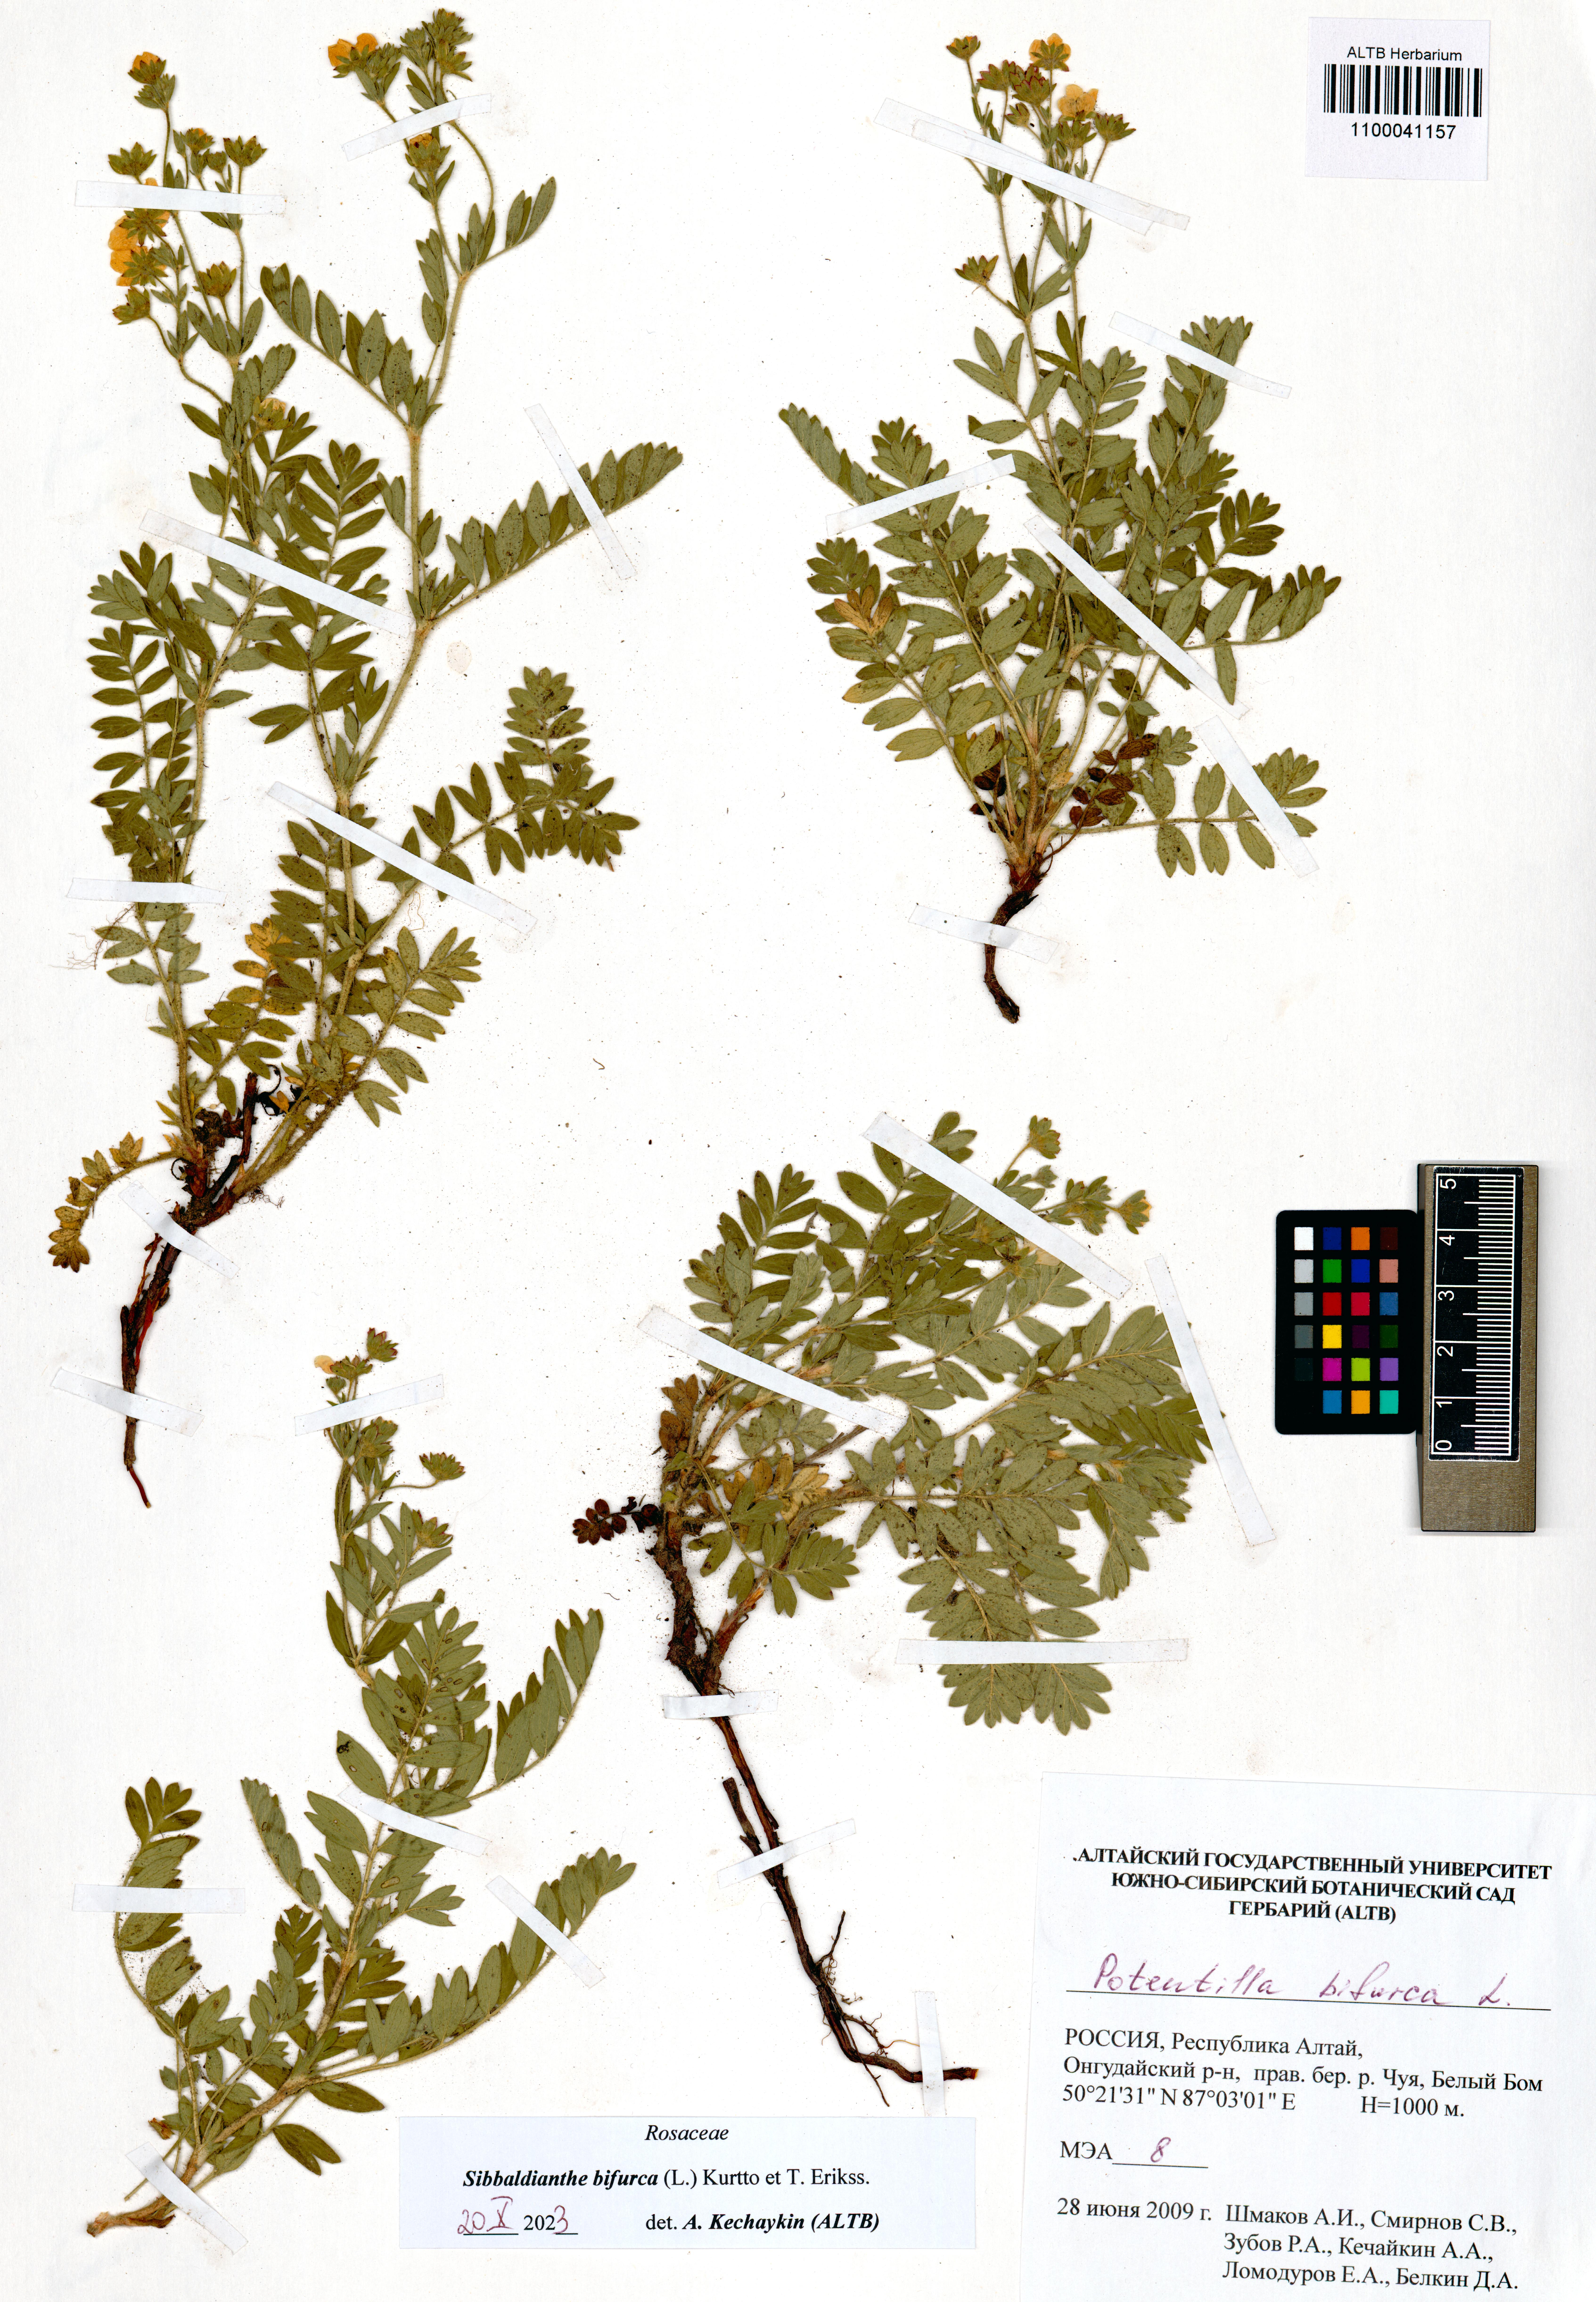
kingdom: Plantae
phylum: Tracheophyta
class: Magnoliopsida
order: Rosales
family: Rosaceae
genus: Sibbaldianthe
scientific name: Sibbaldianthe bifurca
